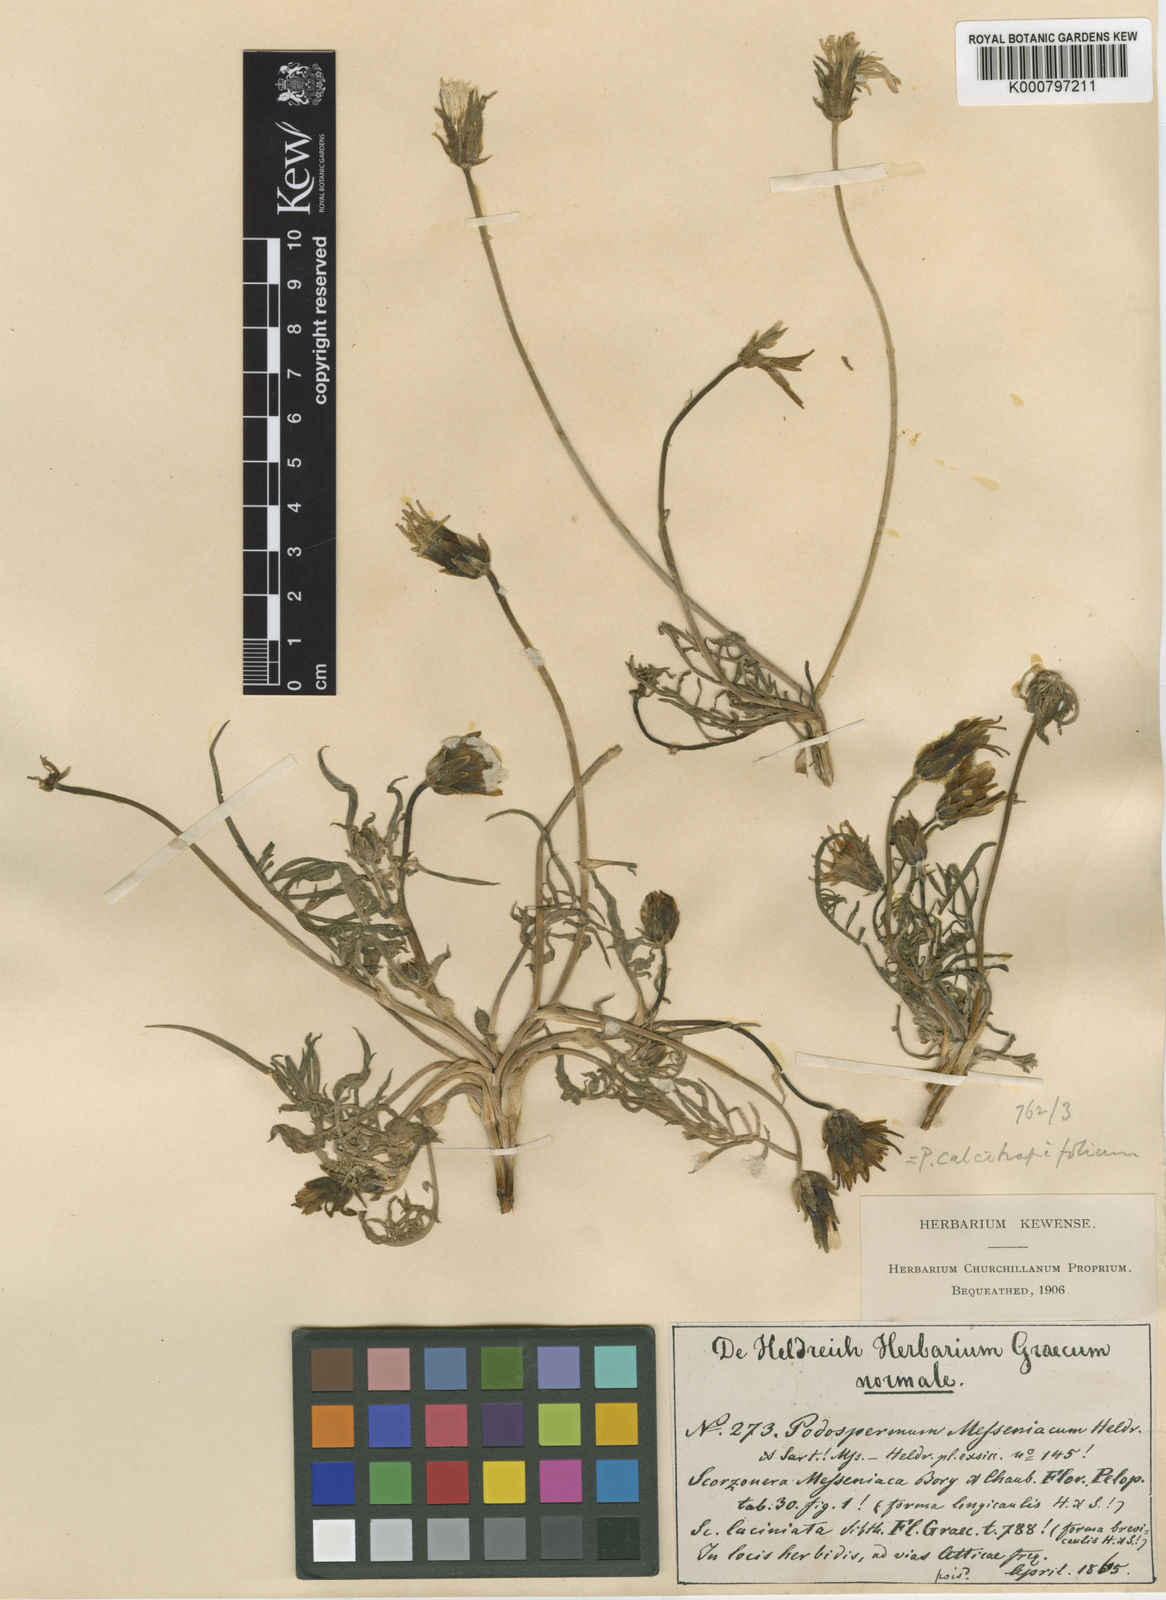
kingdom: Plantae
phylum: Tracheophyta
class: Magnoliopsida
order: Asterales
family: Asteraceae
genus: Scorzonera
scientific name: Scorzonera
